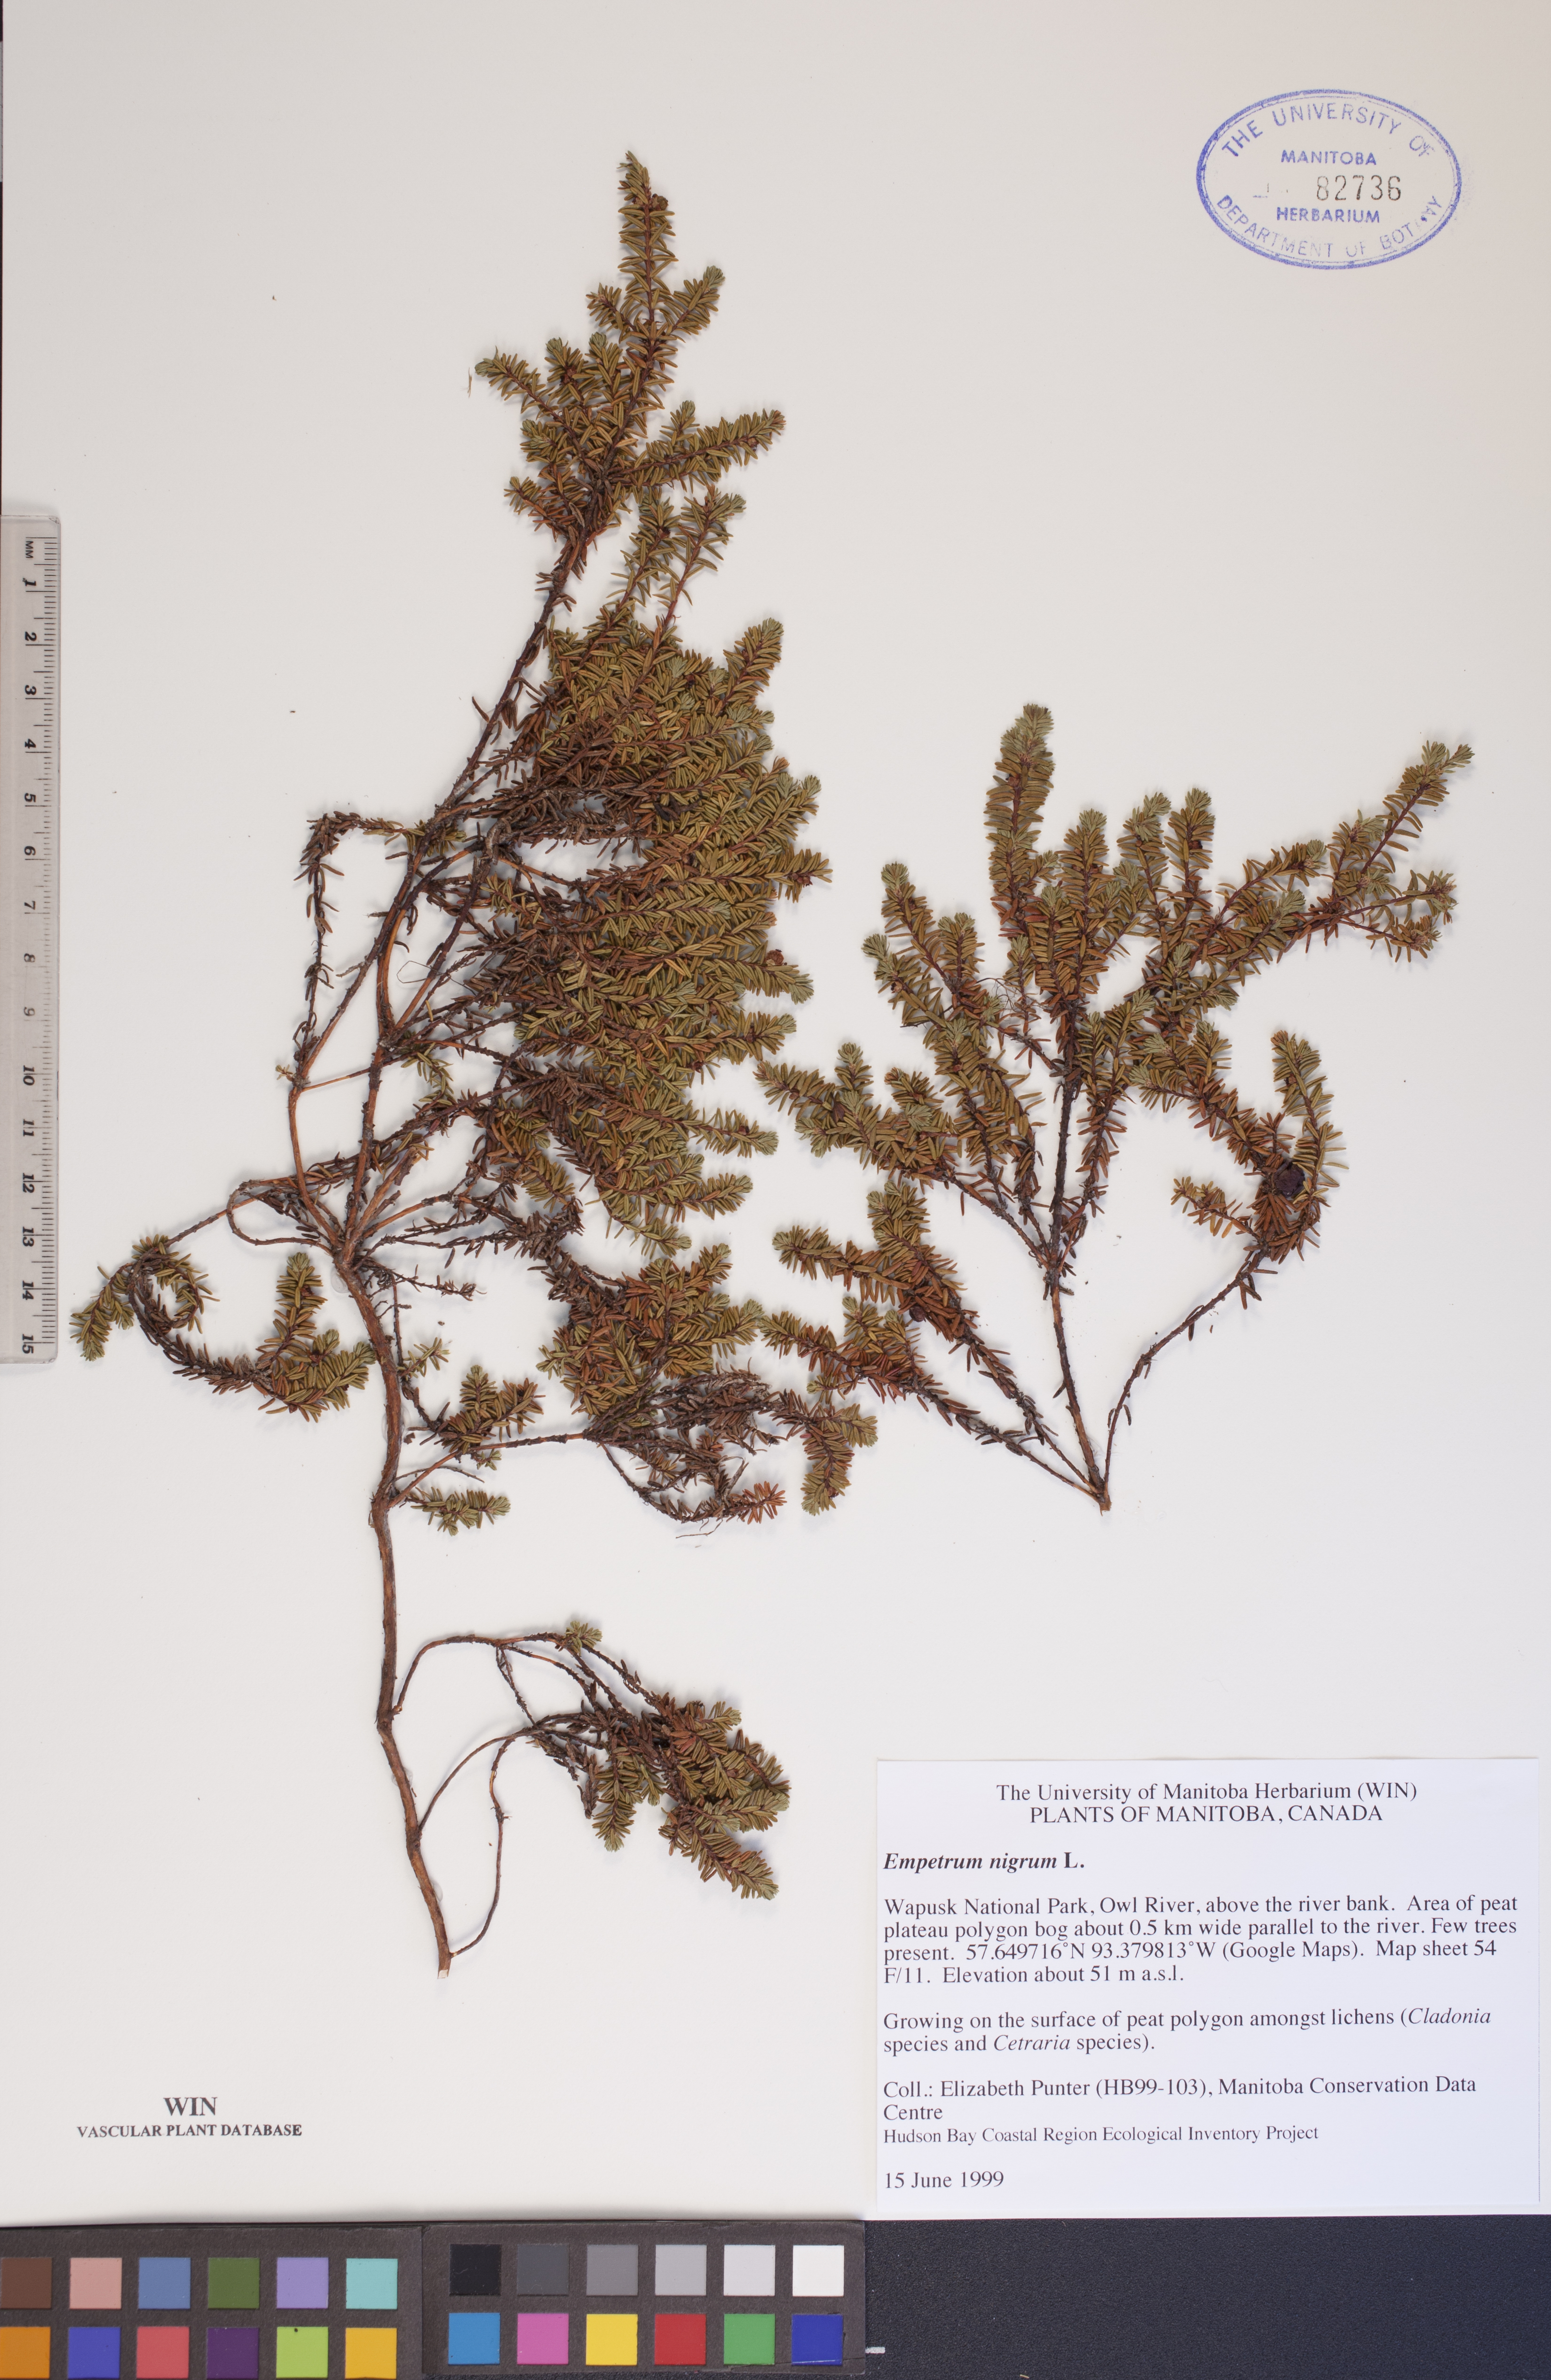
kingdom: Plantae
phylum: Tracheophyta
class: Magnoliopsida
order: Ericales
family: Ericaceae
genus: Empetrum
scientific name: Empetrum nigrum
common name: Black crowberry
